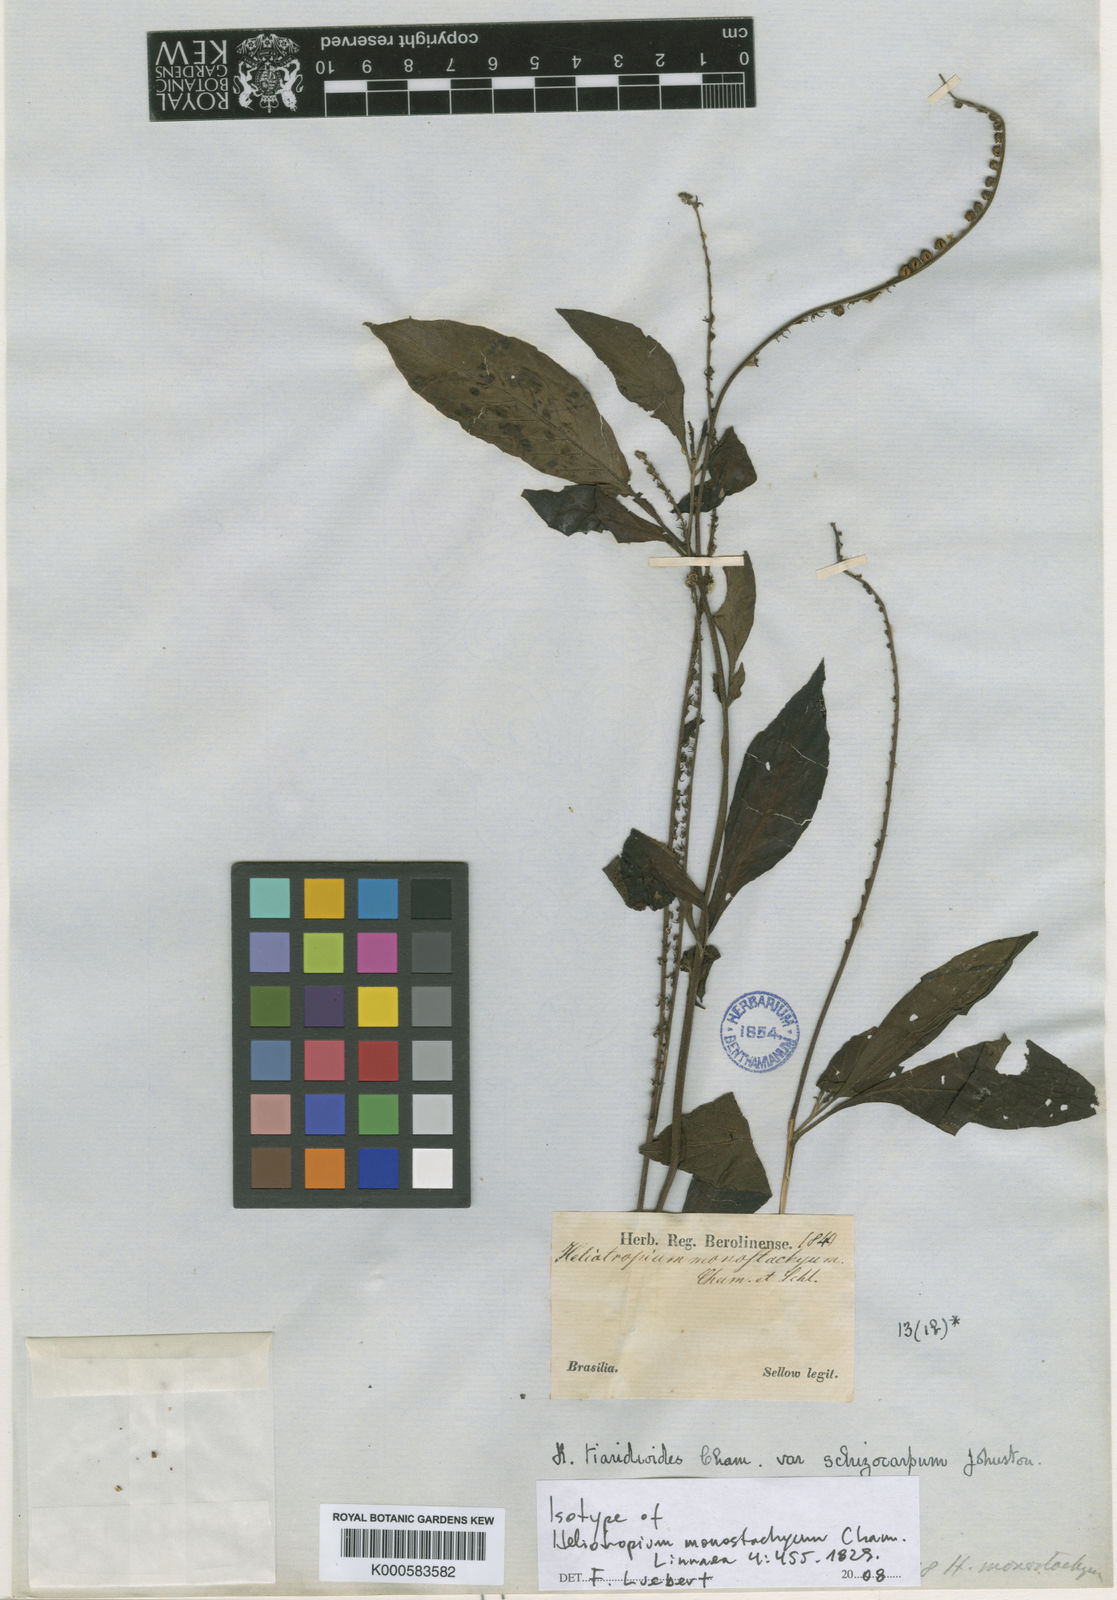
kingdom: Plantae
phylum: Tracheophyta
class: Magnoliopsida
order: Boraginales
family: Heliotropiaceae
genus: Heliotropium
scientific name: Heliotropium transalpinum
